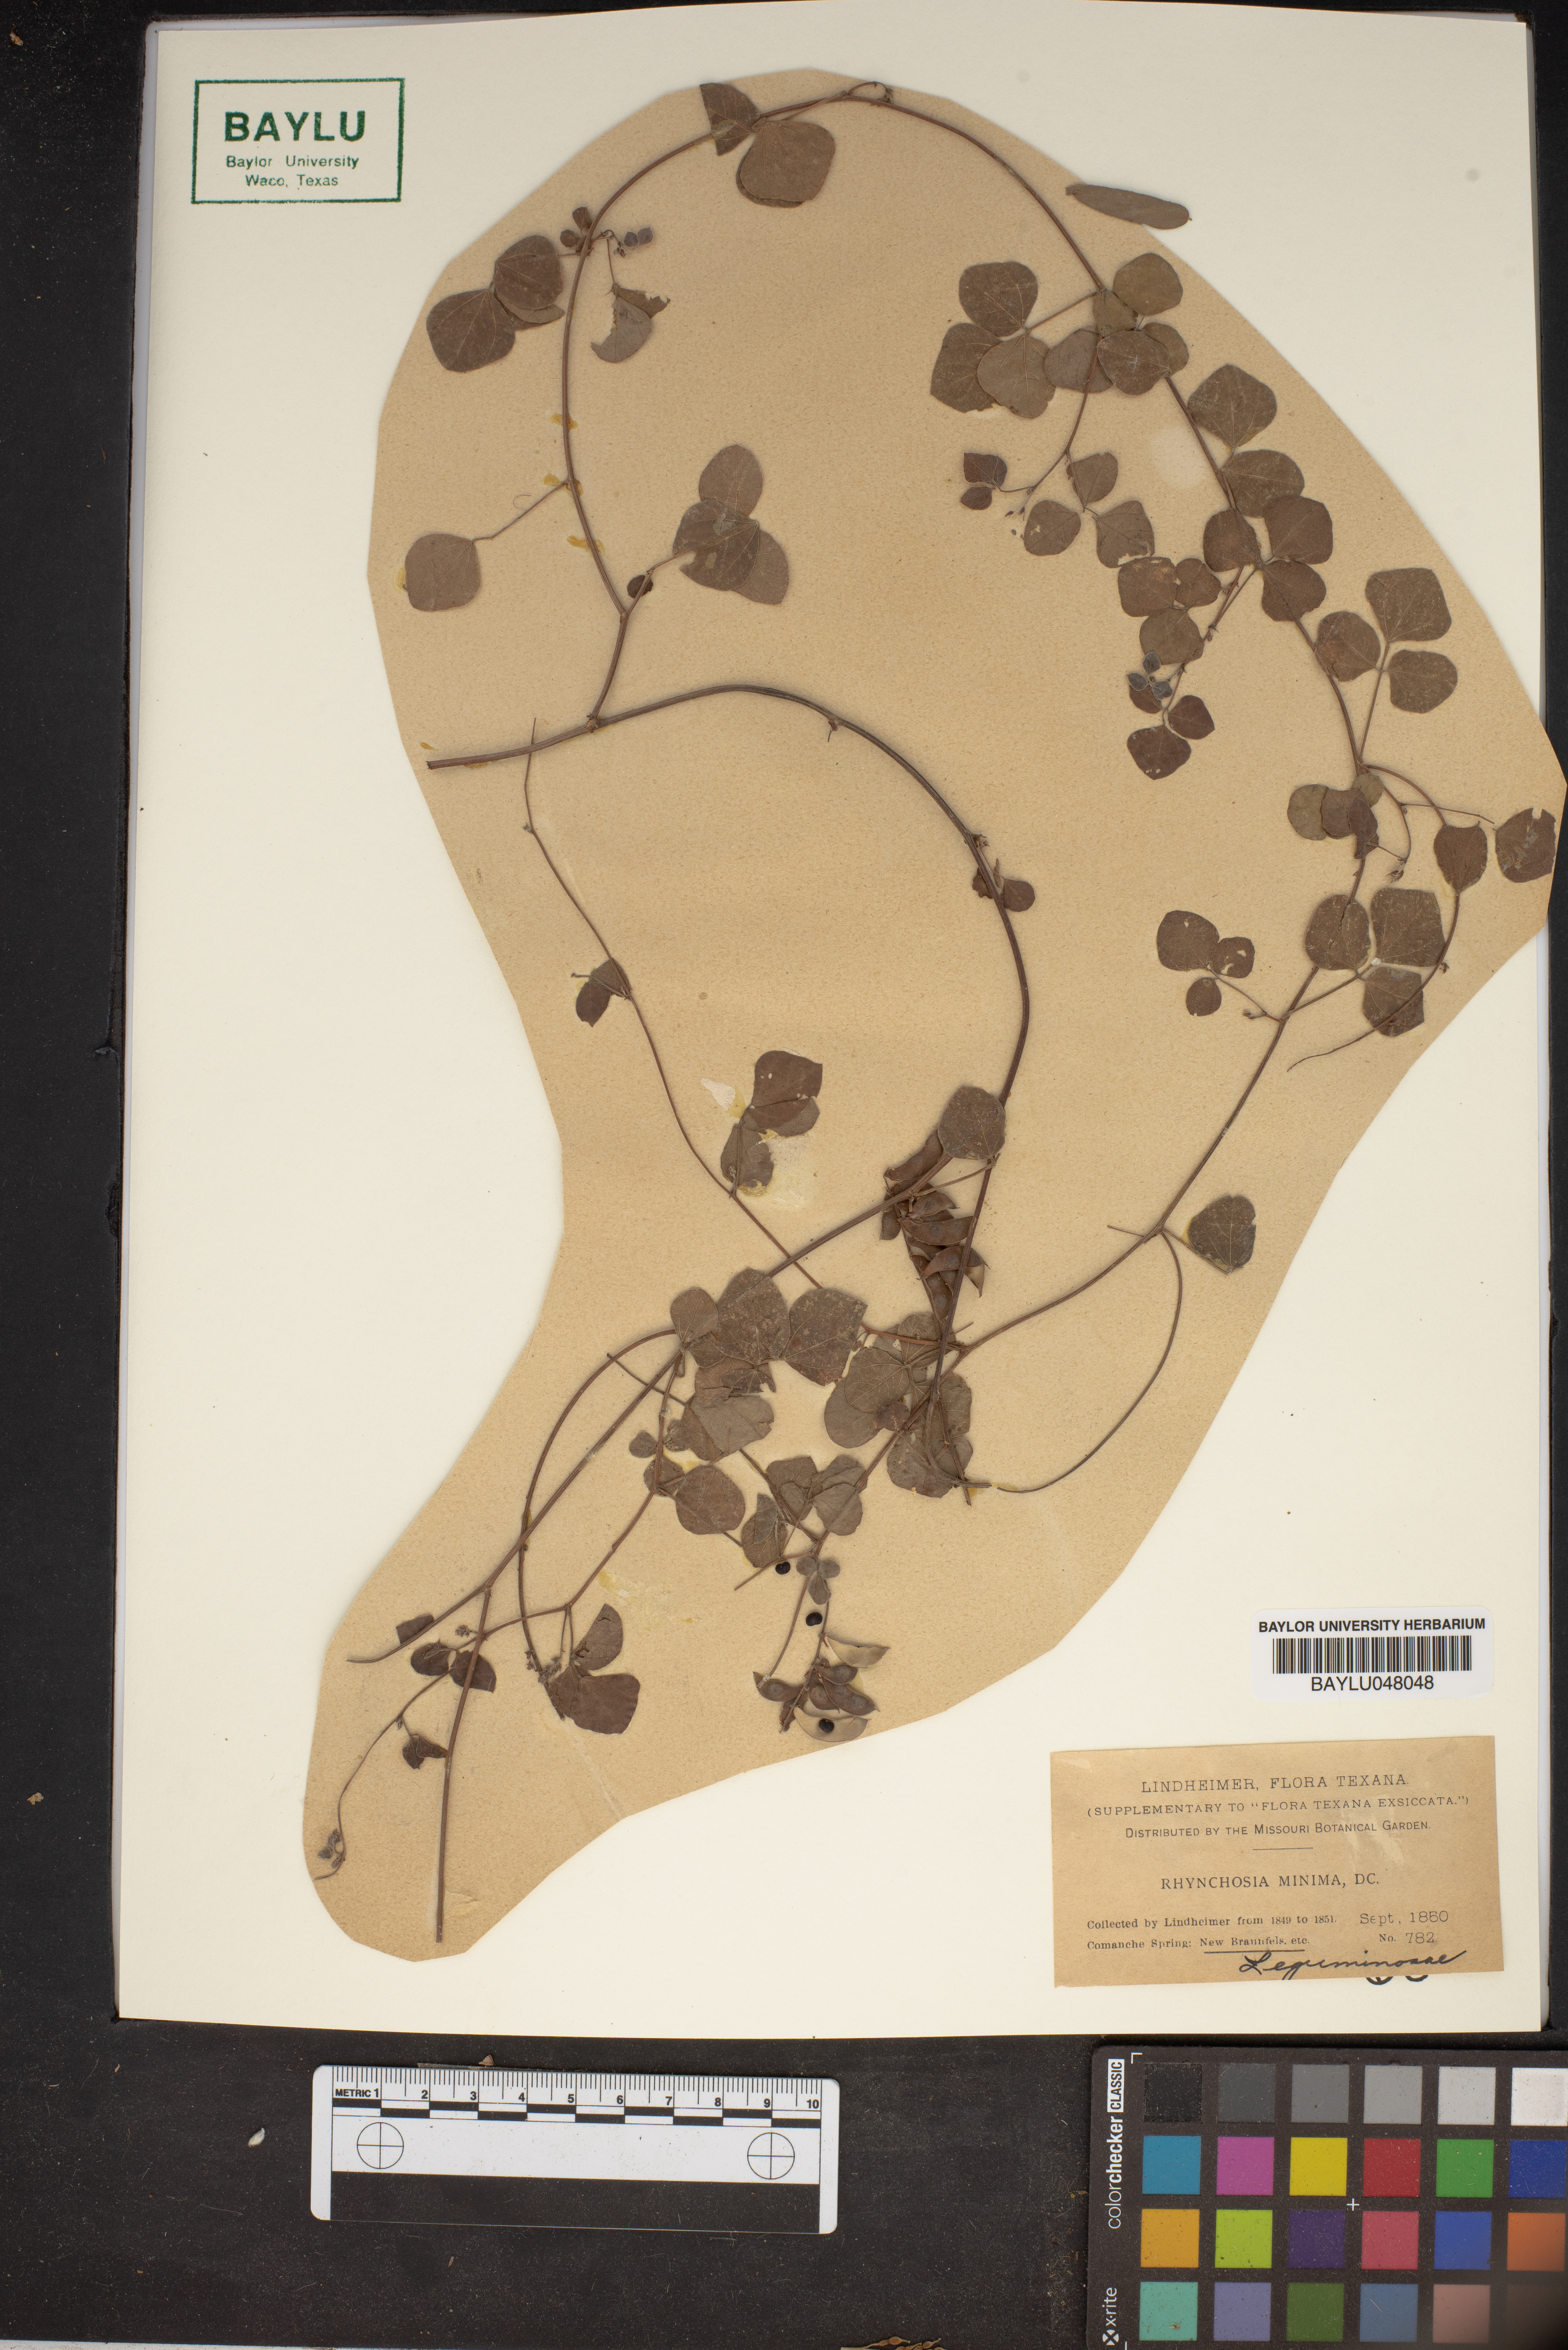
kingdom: Plantae
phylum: Tracheophyta
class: Magnoliopsida
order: Fabales
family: Fabaceae
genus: Rhynchosia
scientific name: Rhynchosia minima
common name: Least snoutbean
